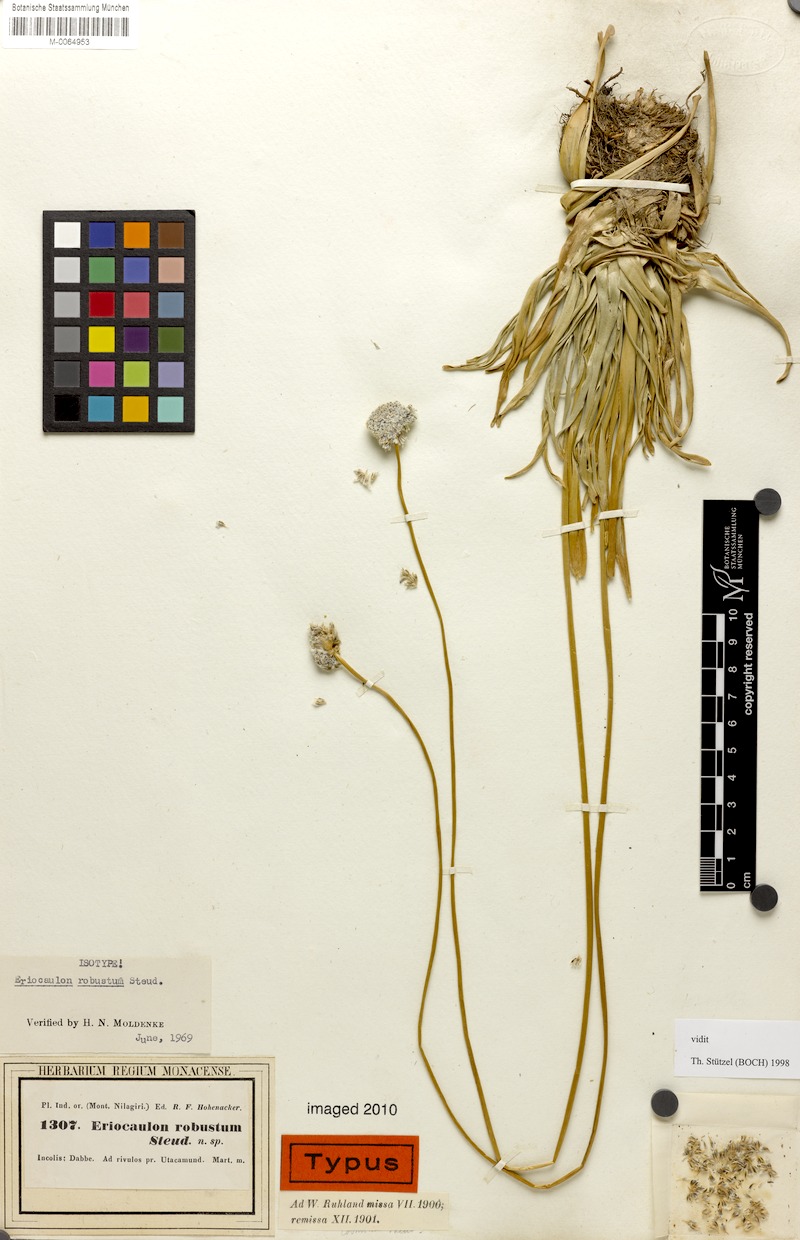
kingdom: Plantae
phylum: Tracheophyta
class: Liliopsida
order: Poales
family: Eriocaulaceae
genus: Eriocaulon
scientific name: Eriocaulon robustum
